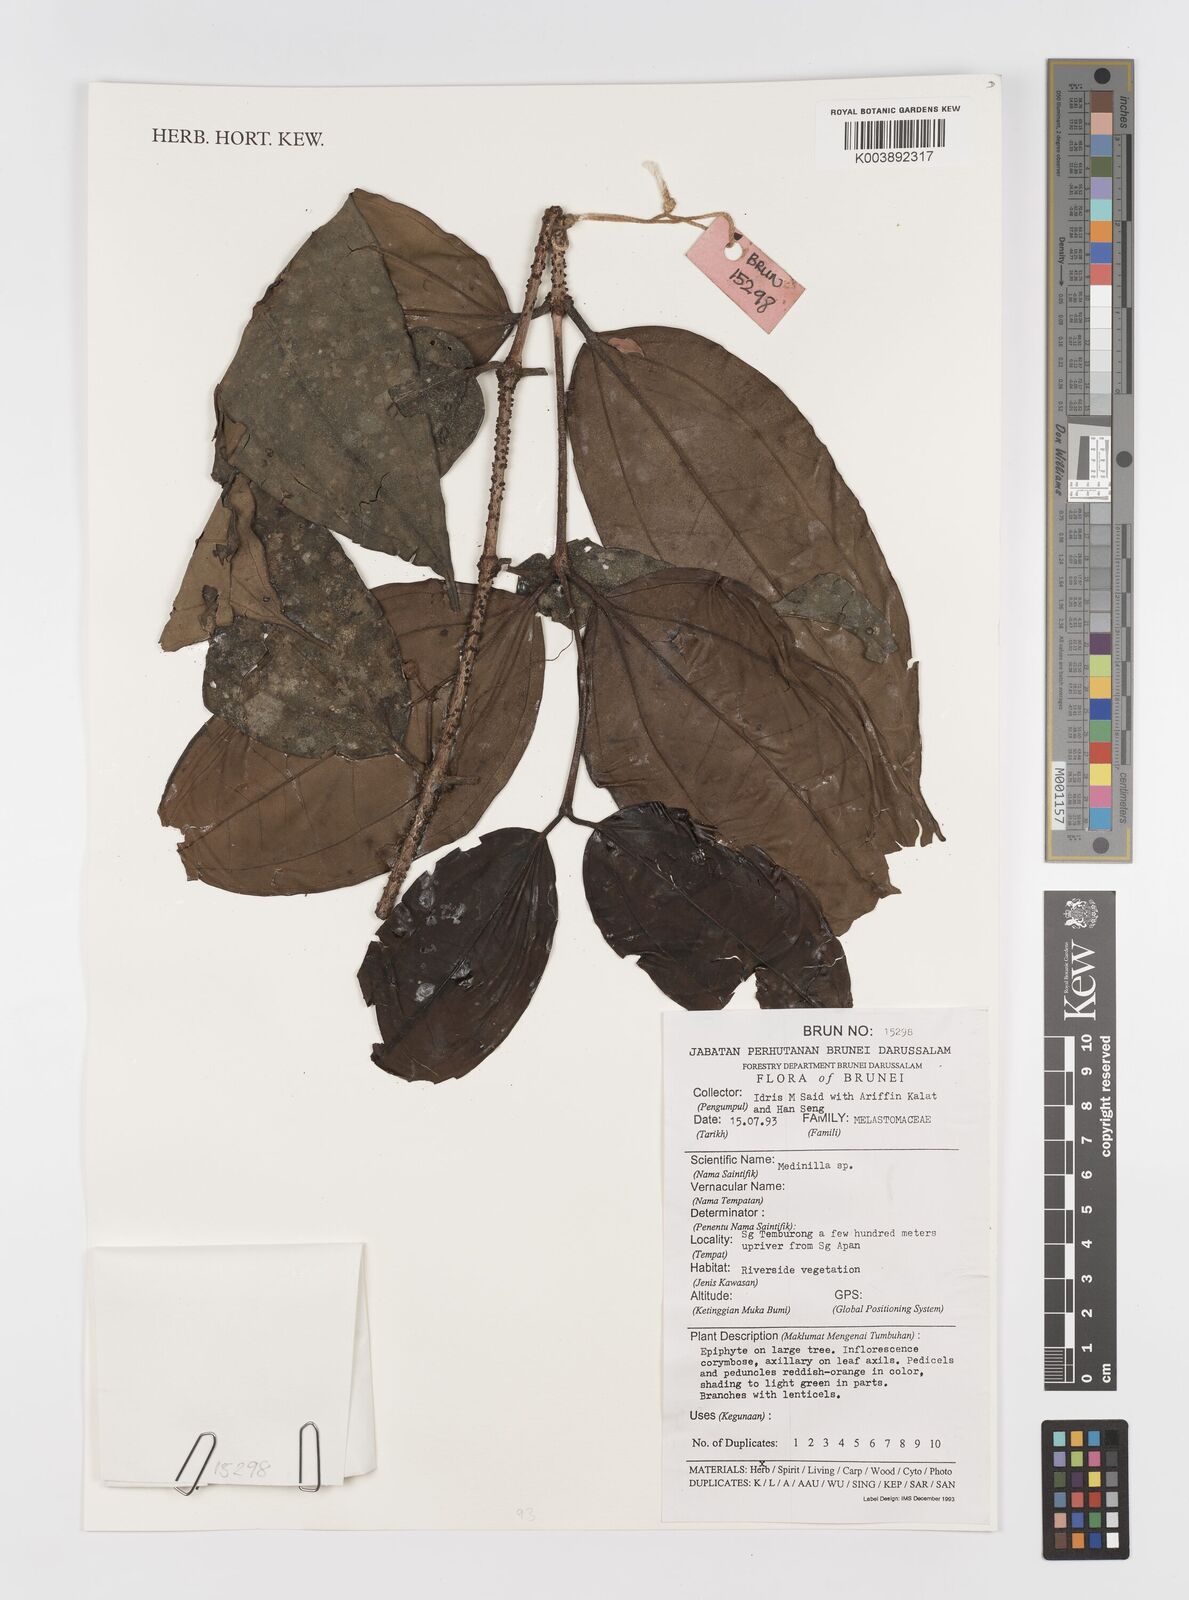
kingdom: Plantae
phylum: Tracheophyta
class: Magnoliopsida
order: Myrtales
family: Melastomataceae
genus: Medinilla
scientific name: Medinilla
